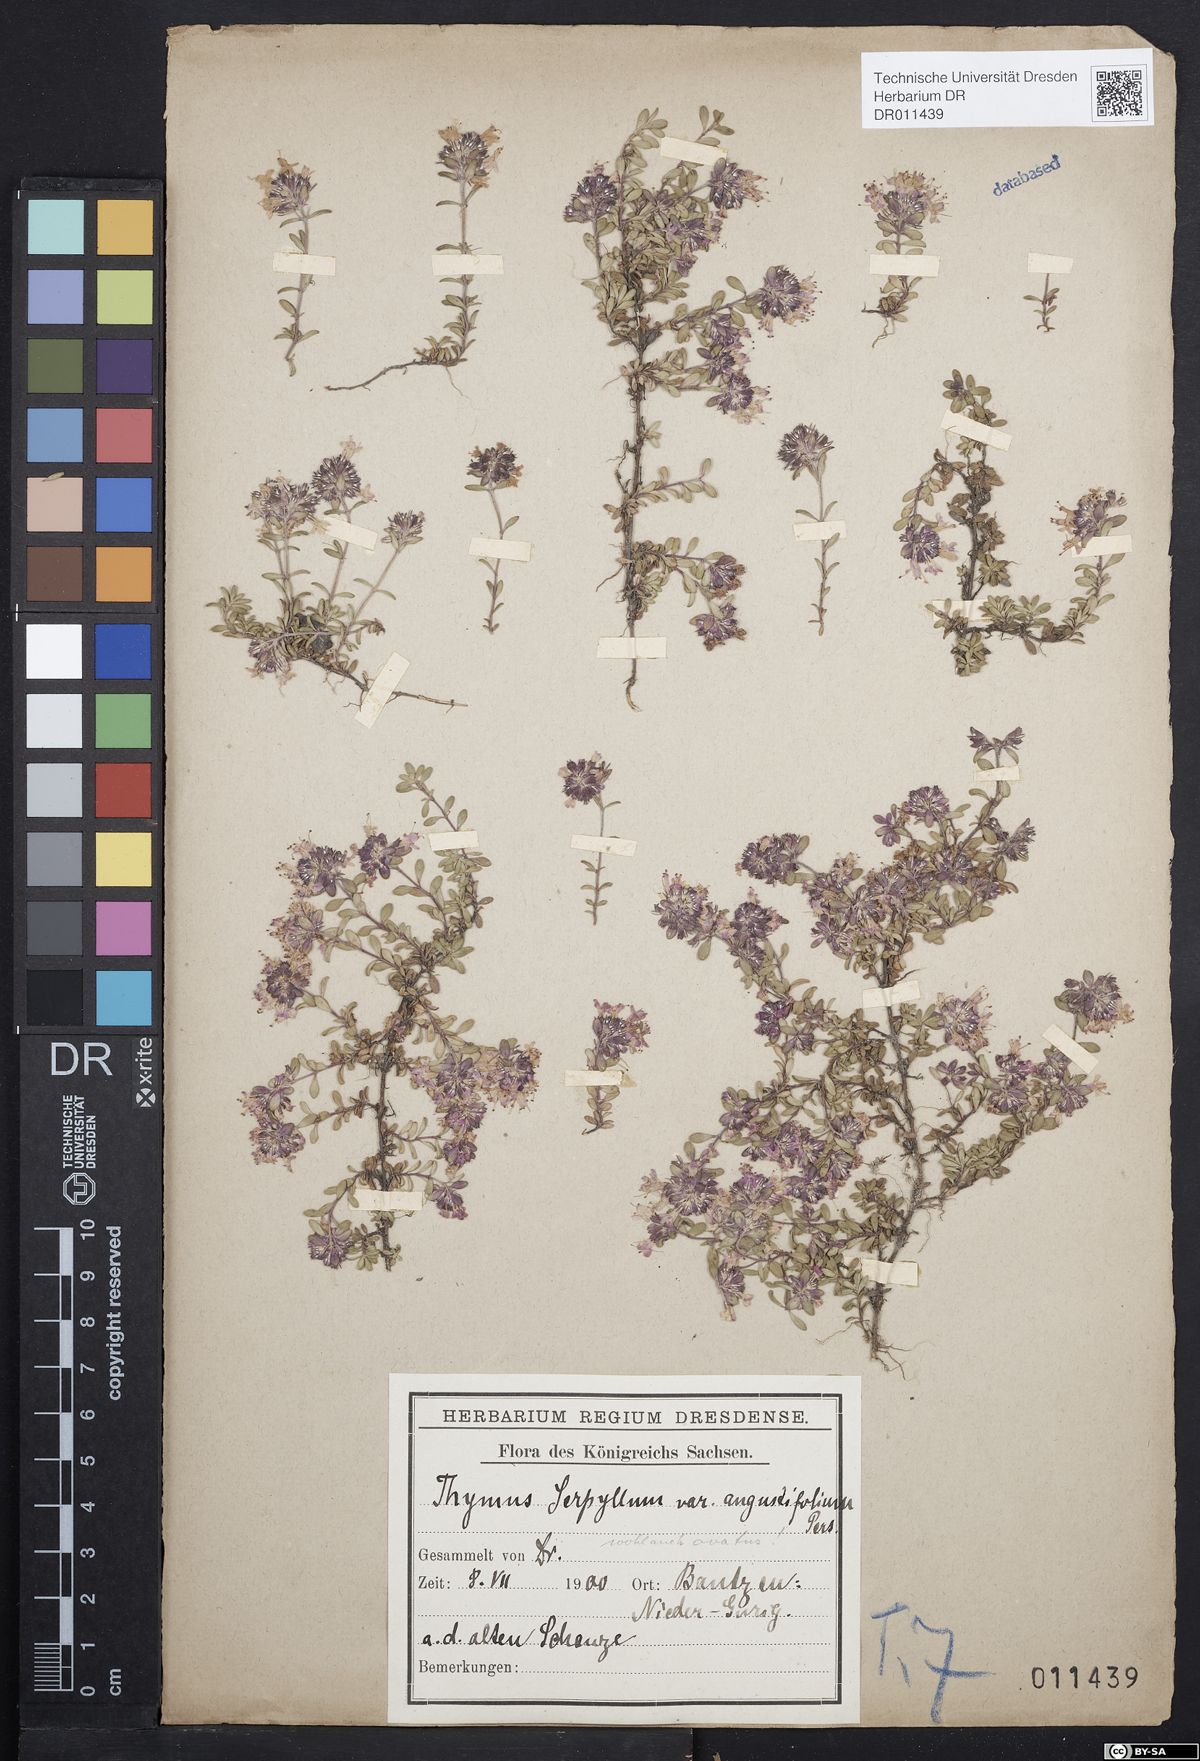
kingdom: Plantae
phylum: Tracheophyta
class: Magnoliopsida
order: Lamiales
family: Lamiaceae
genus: Thymus
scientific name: Thymus serpyllum
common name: Breckland thyme
